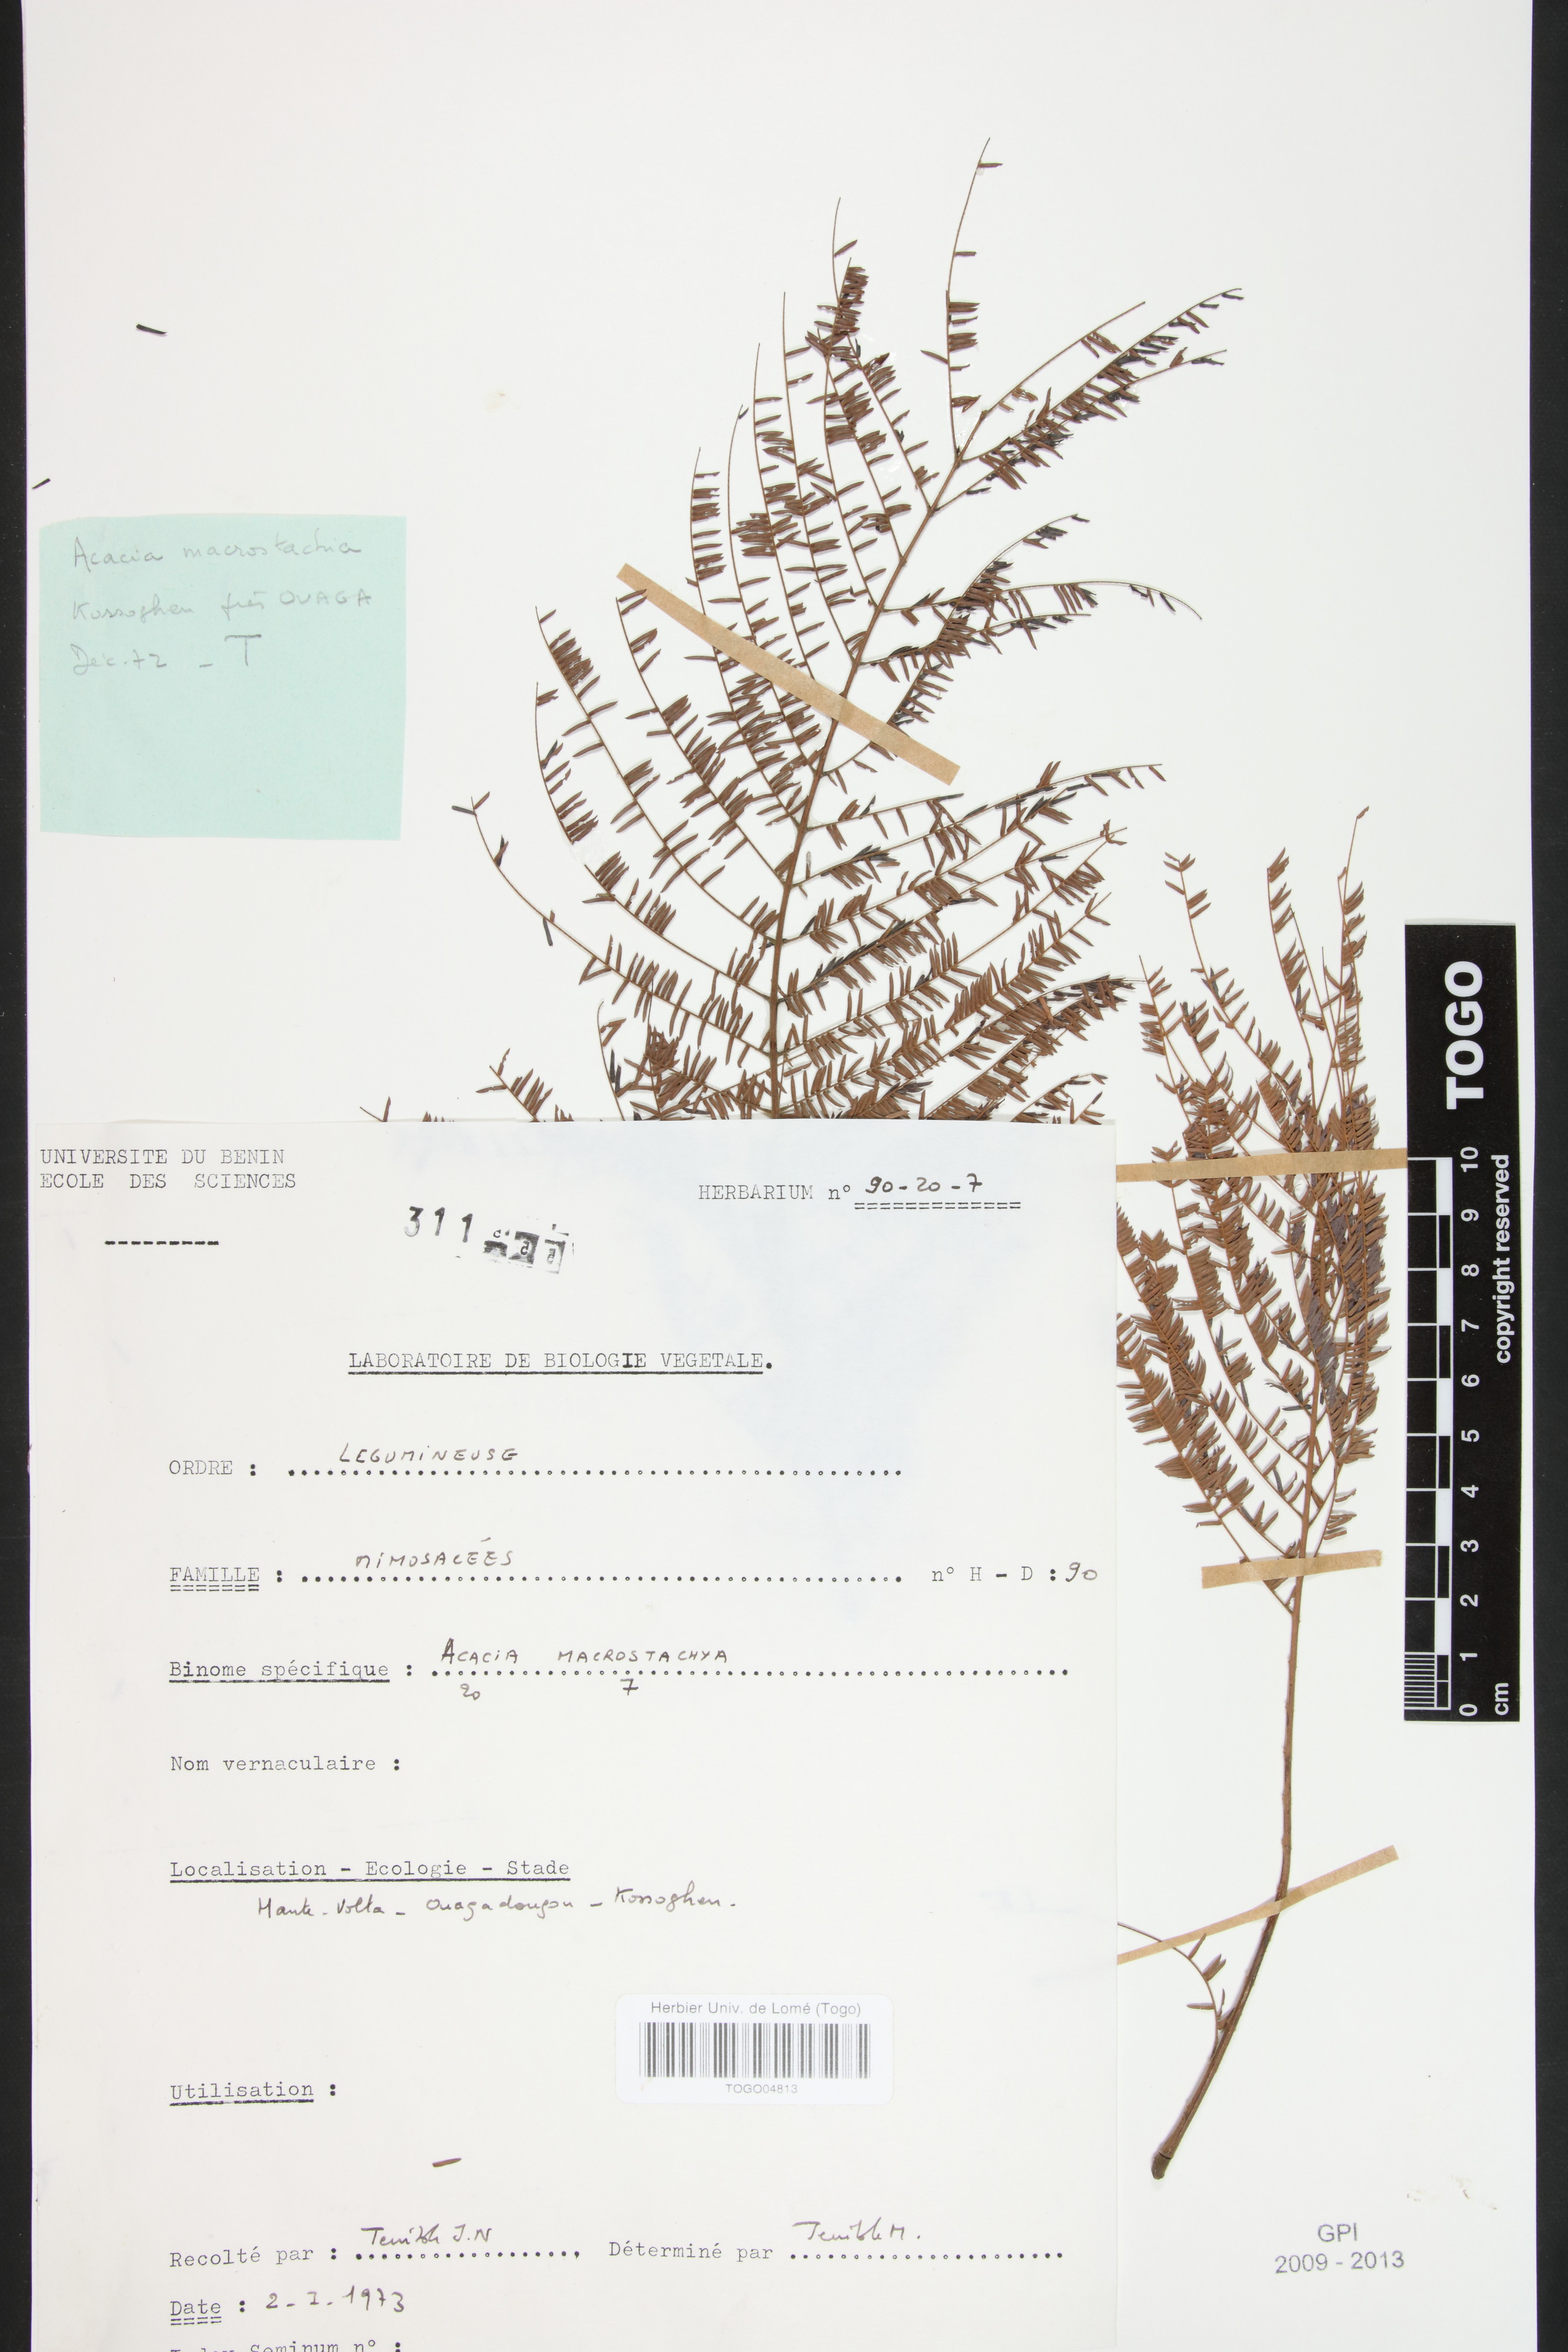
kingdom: Plantae
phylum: Tracheophyta
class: Magnoliopsida
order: Fabales
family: Fabaceae
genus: Senegalia
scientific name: Senegalia macrostachya
